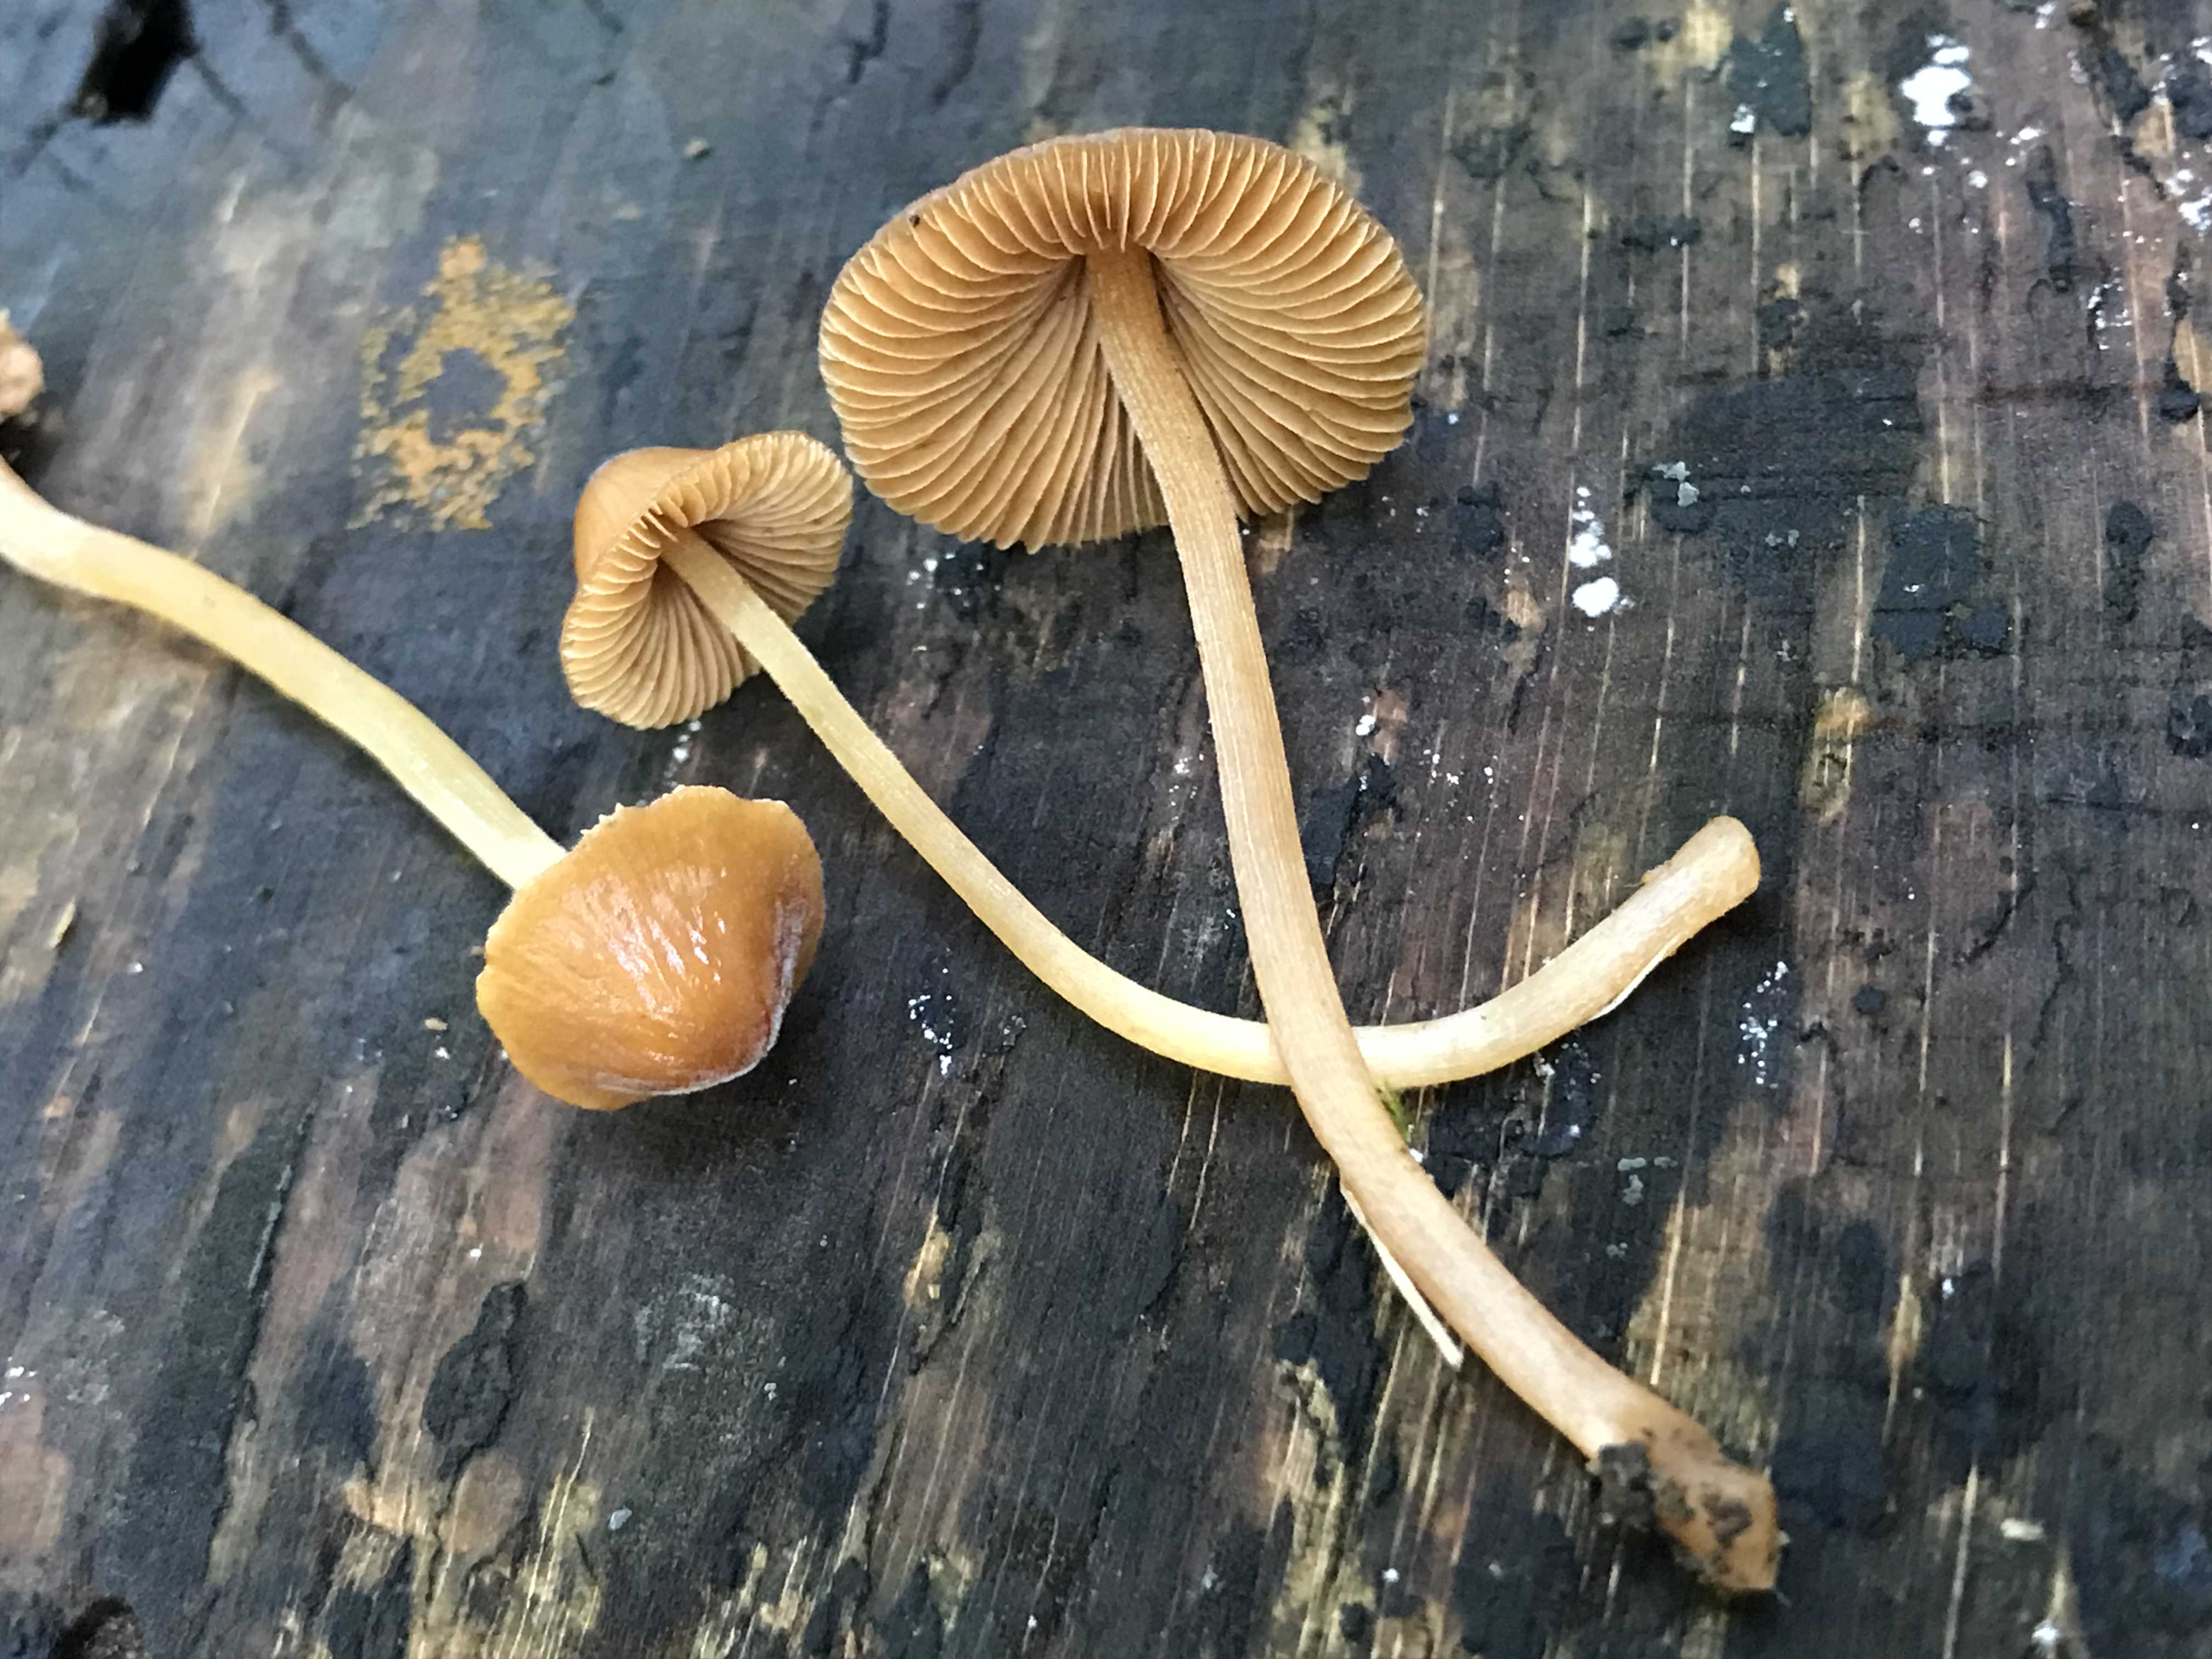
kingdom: Fungi
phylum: Basidiomycota
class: Agaricomycetes
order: Agaricales
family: Bolbitiaceae
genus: Conocybe
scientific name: Conocybe subpubescens
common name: krat-keglehat
